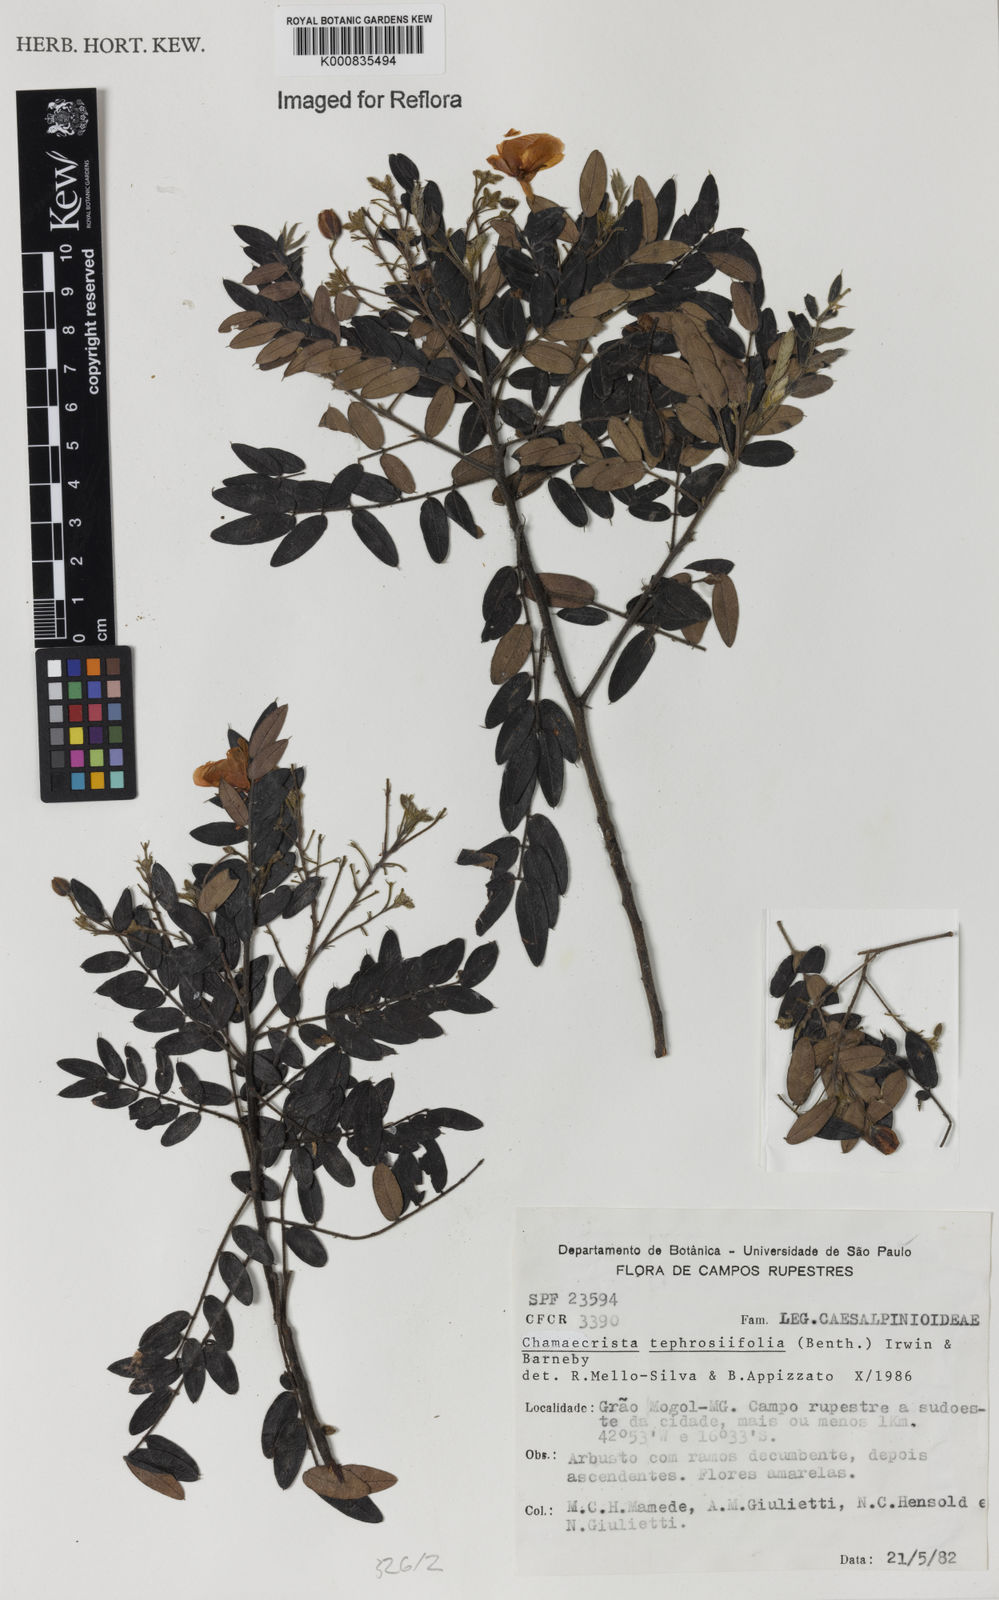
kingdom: Plantae
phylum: Tracheophyta
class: Magnoliopsida
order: Fabales
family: Fabaceae
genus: Chamaecrista
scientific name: Chamaecrista tephrosiifolia
